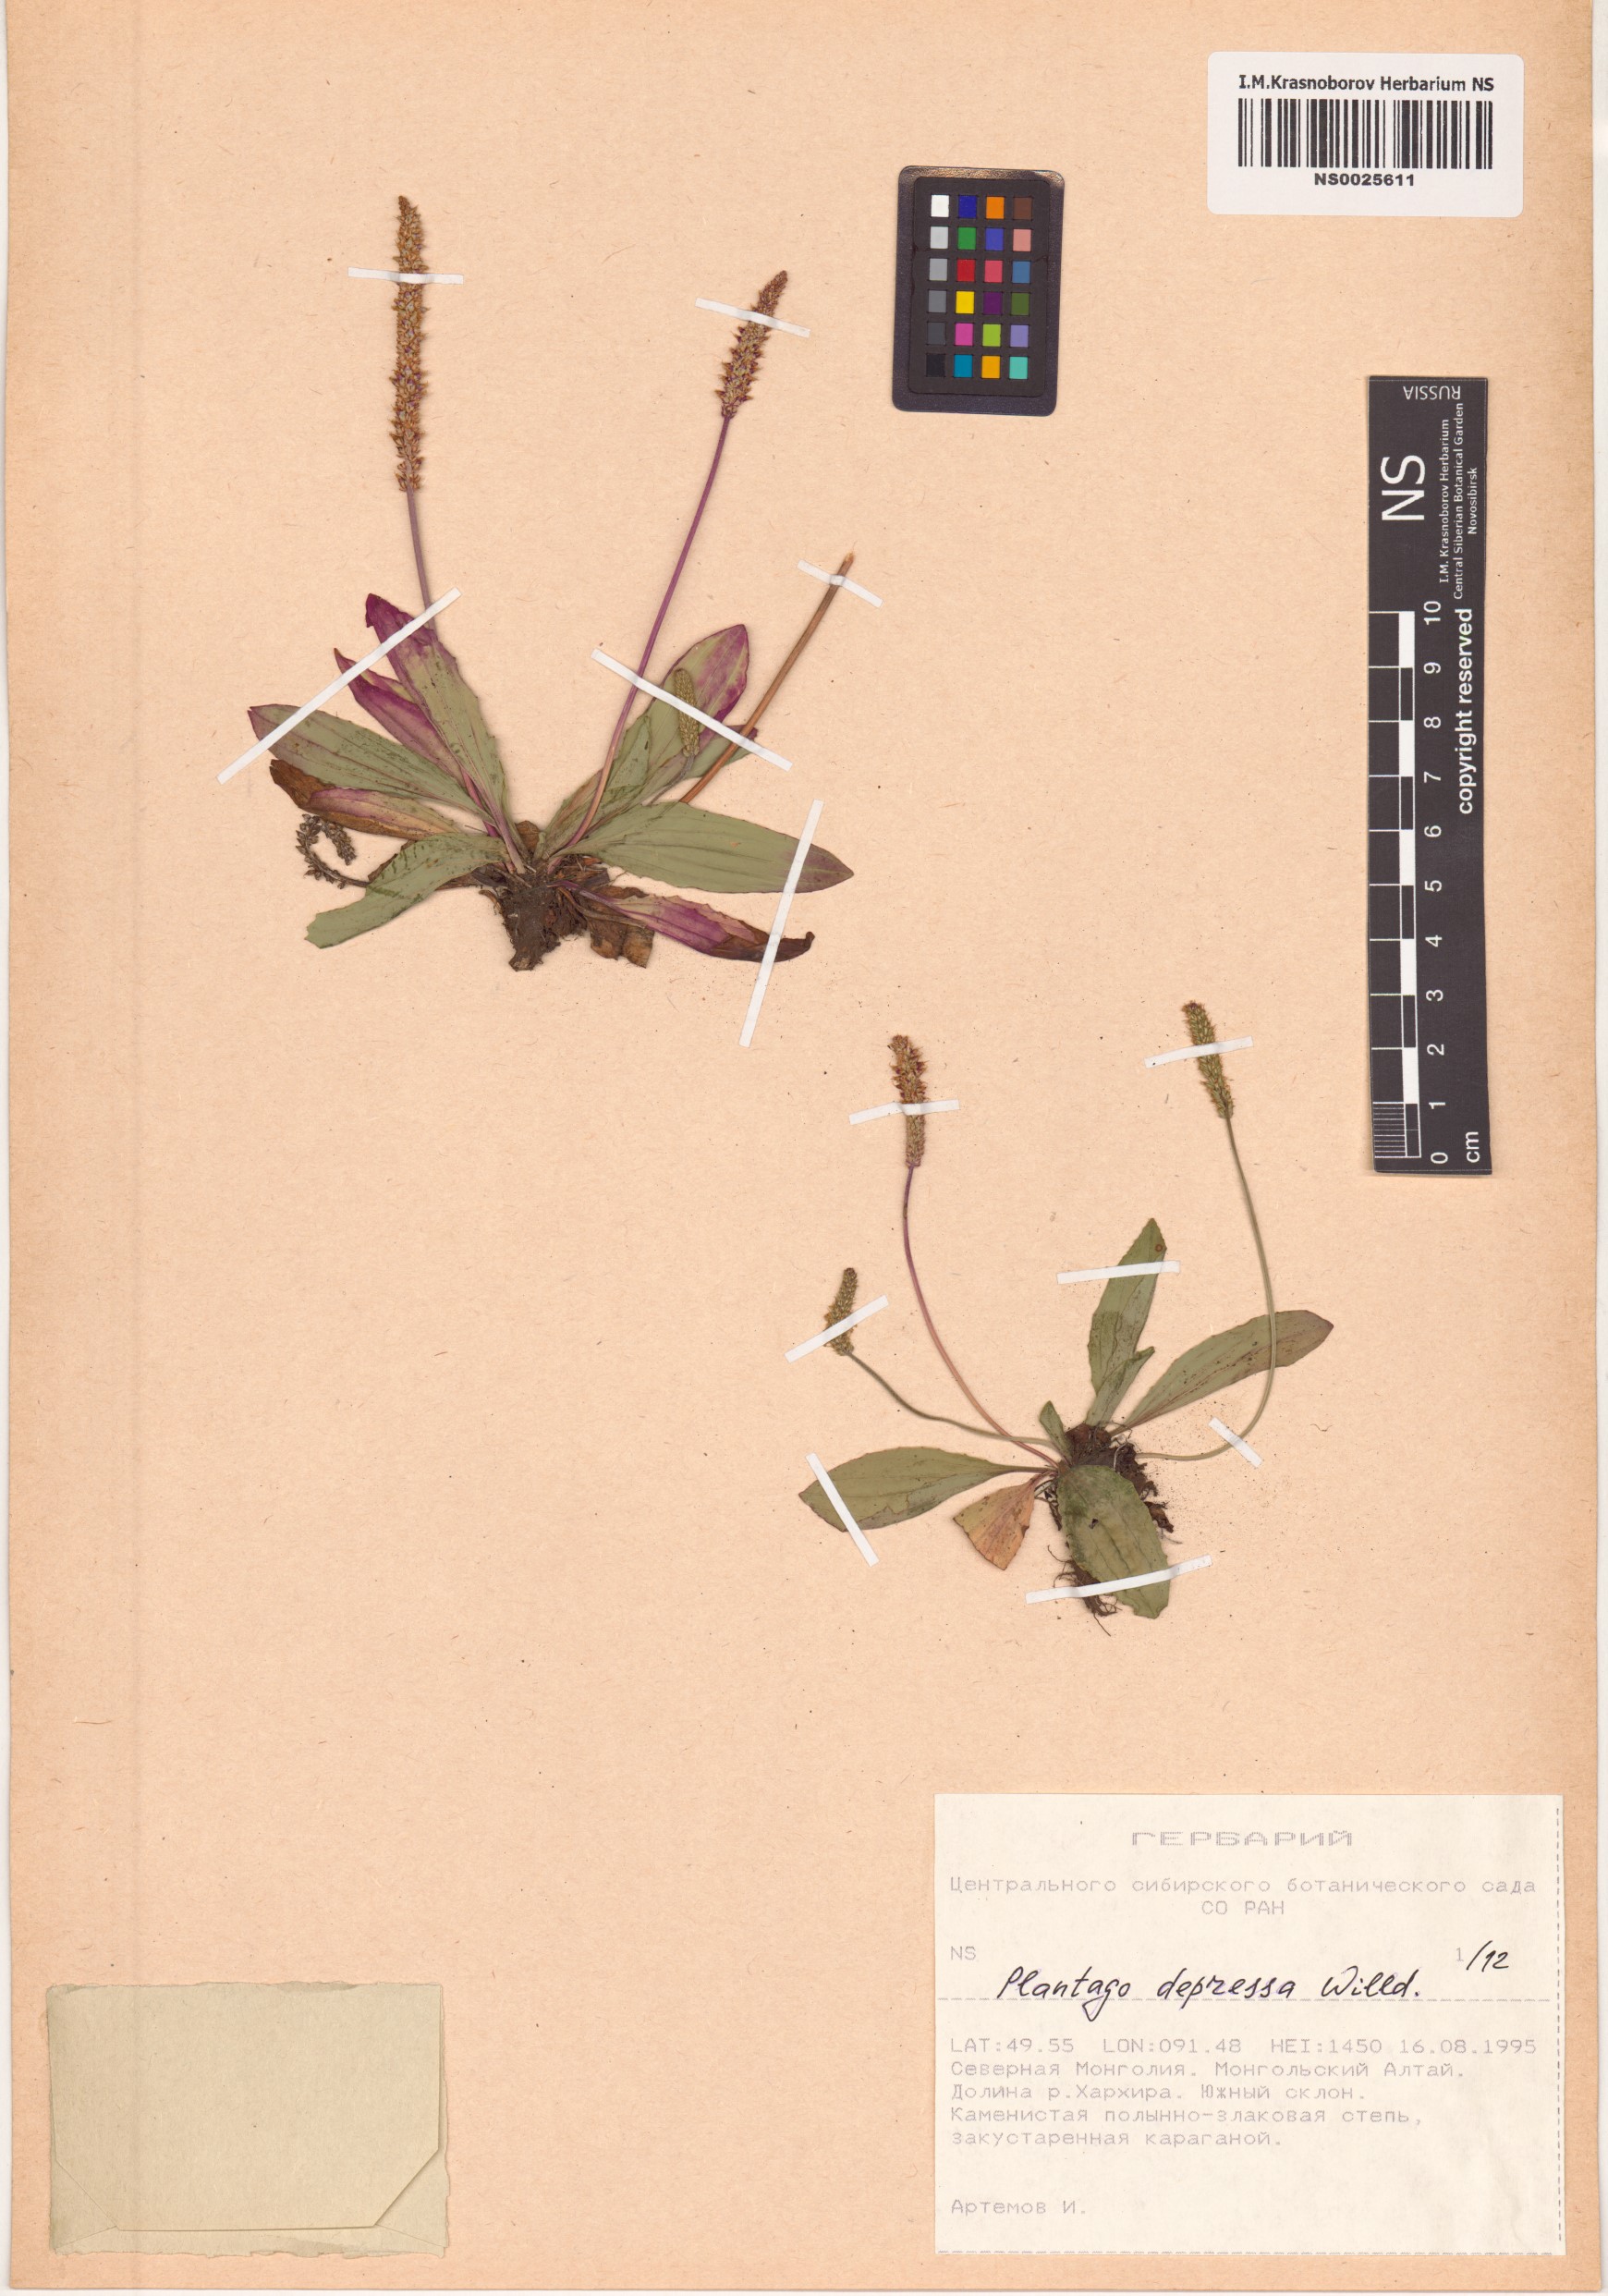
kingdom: Plantae
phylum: Tracheophyta
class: Magnoliopsida
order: Lamiales
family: Plantaginaceae
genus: Plantago
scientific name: Plantago depressa
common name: Depressed plantain
